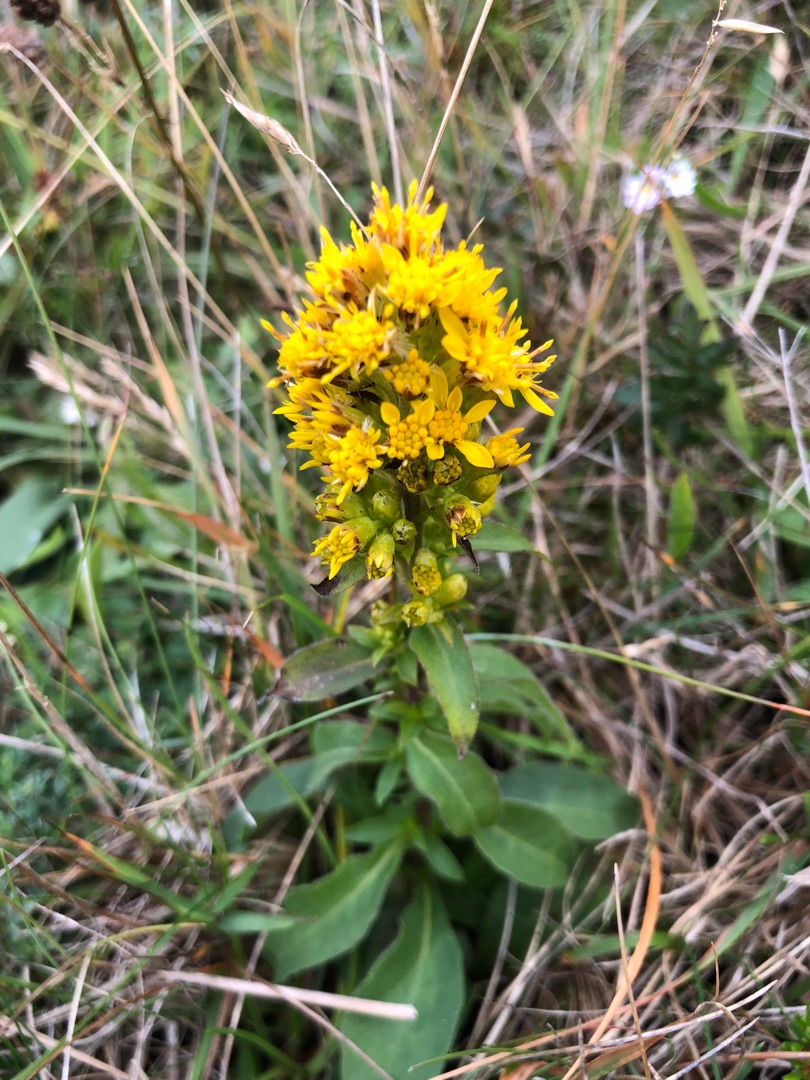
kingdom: Plantae
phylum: Tracheophyta
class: Magnoliopsida
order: Asterales
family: Asteraceae
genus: Solidago
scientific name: Solidago virgaurea
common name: Almindelig gyldenris
